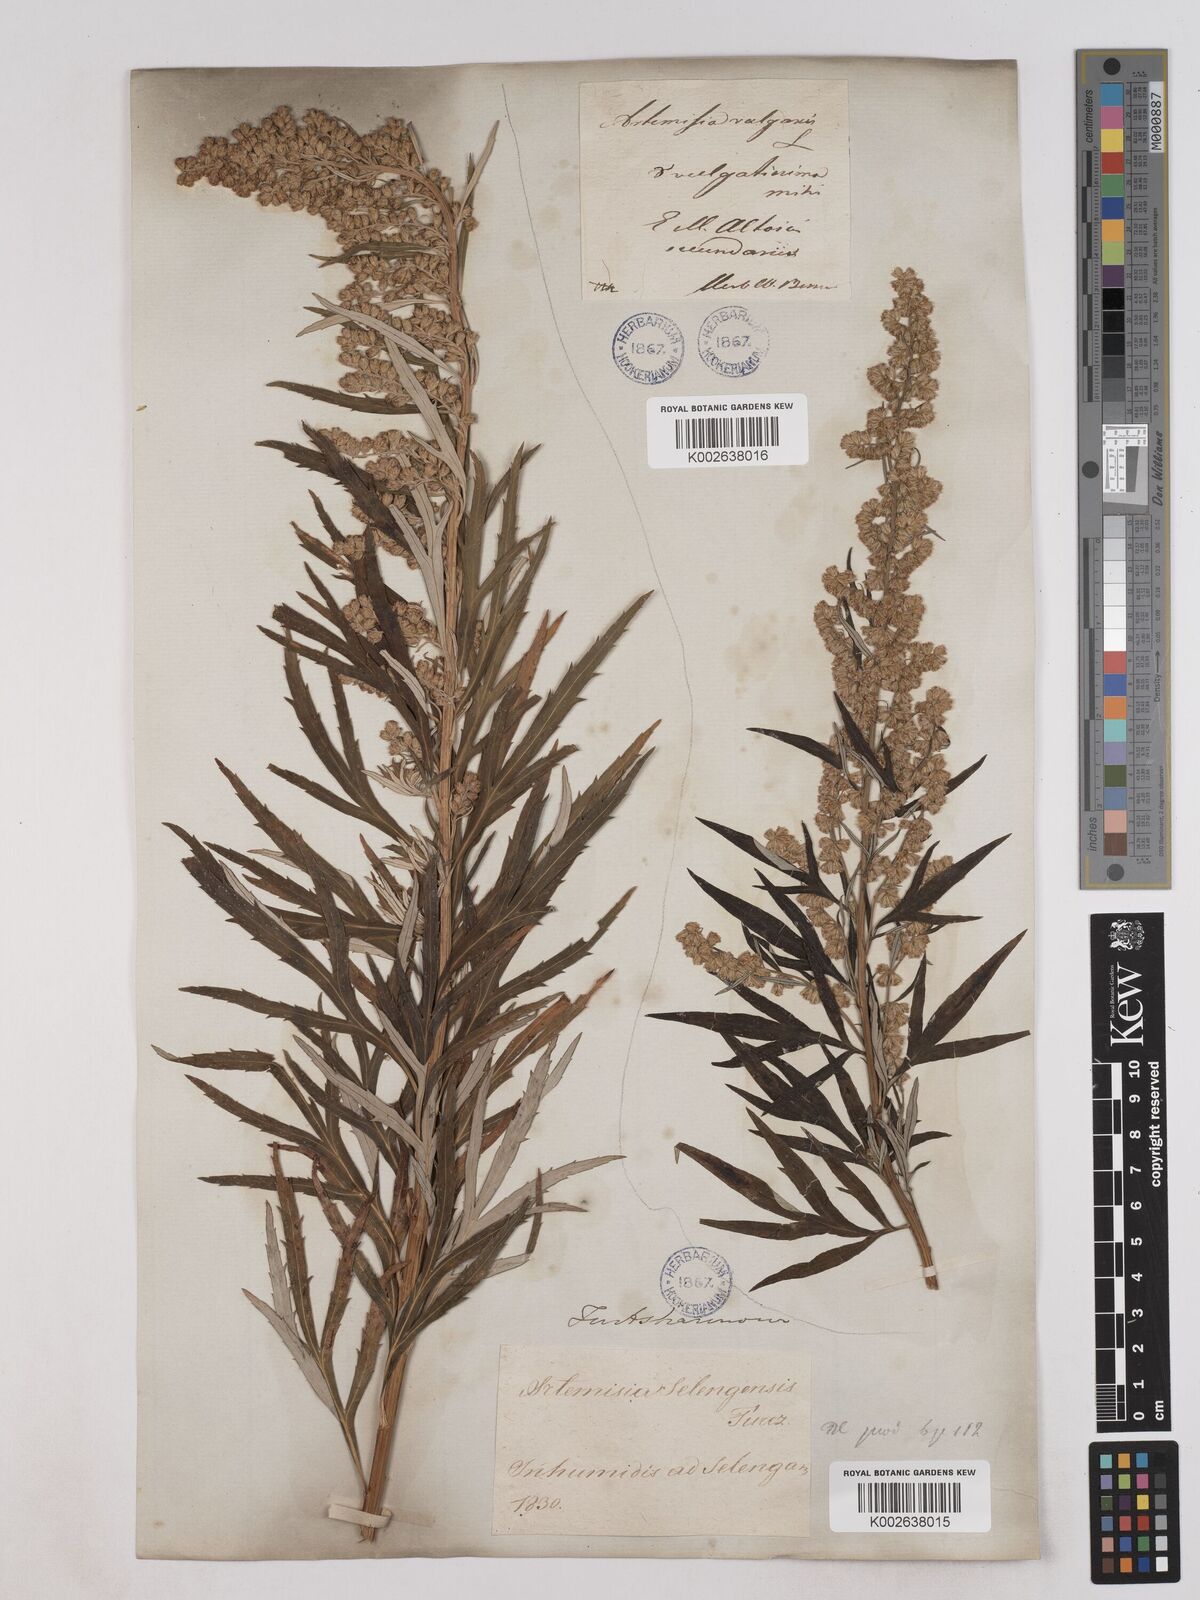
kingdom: Plantae
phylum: Tracheophyta
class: Magnoliopsida
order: Asterales
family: Asteraceae
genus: Artemisia
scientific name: Artemisia selengensis
